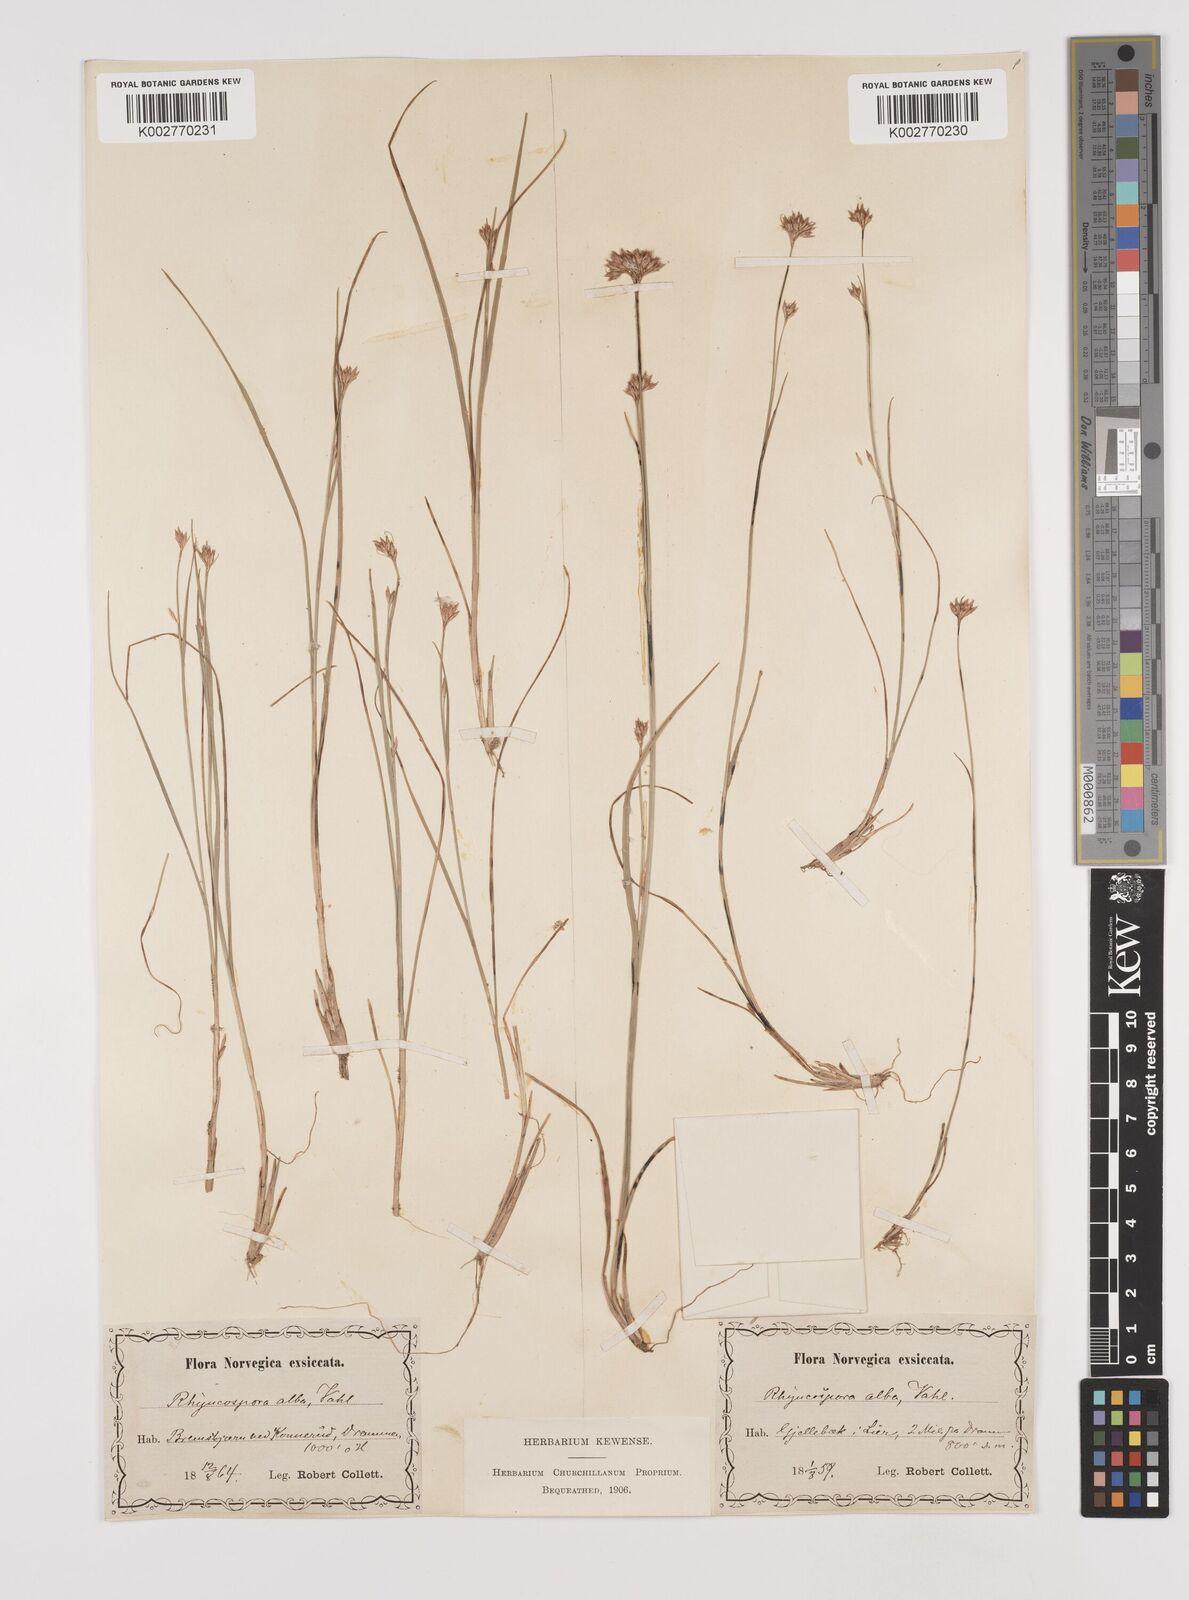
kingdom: Plantae
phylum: Tracheophyta
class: Liliopsida
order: Poales
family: Cyperaceae
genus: Rhynchospora
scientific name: Rhynchospora alba
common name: White beak-sedge
